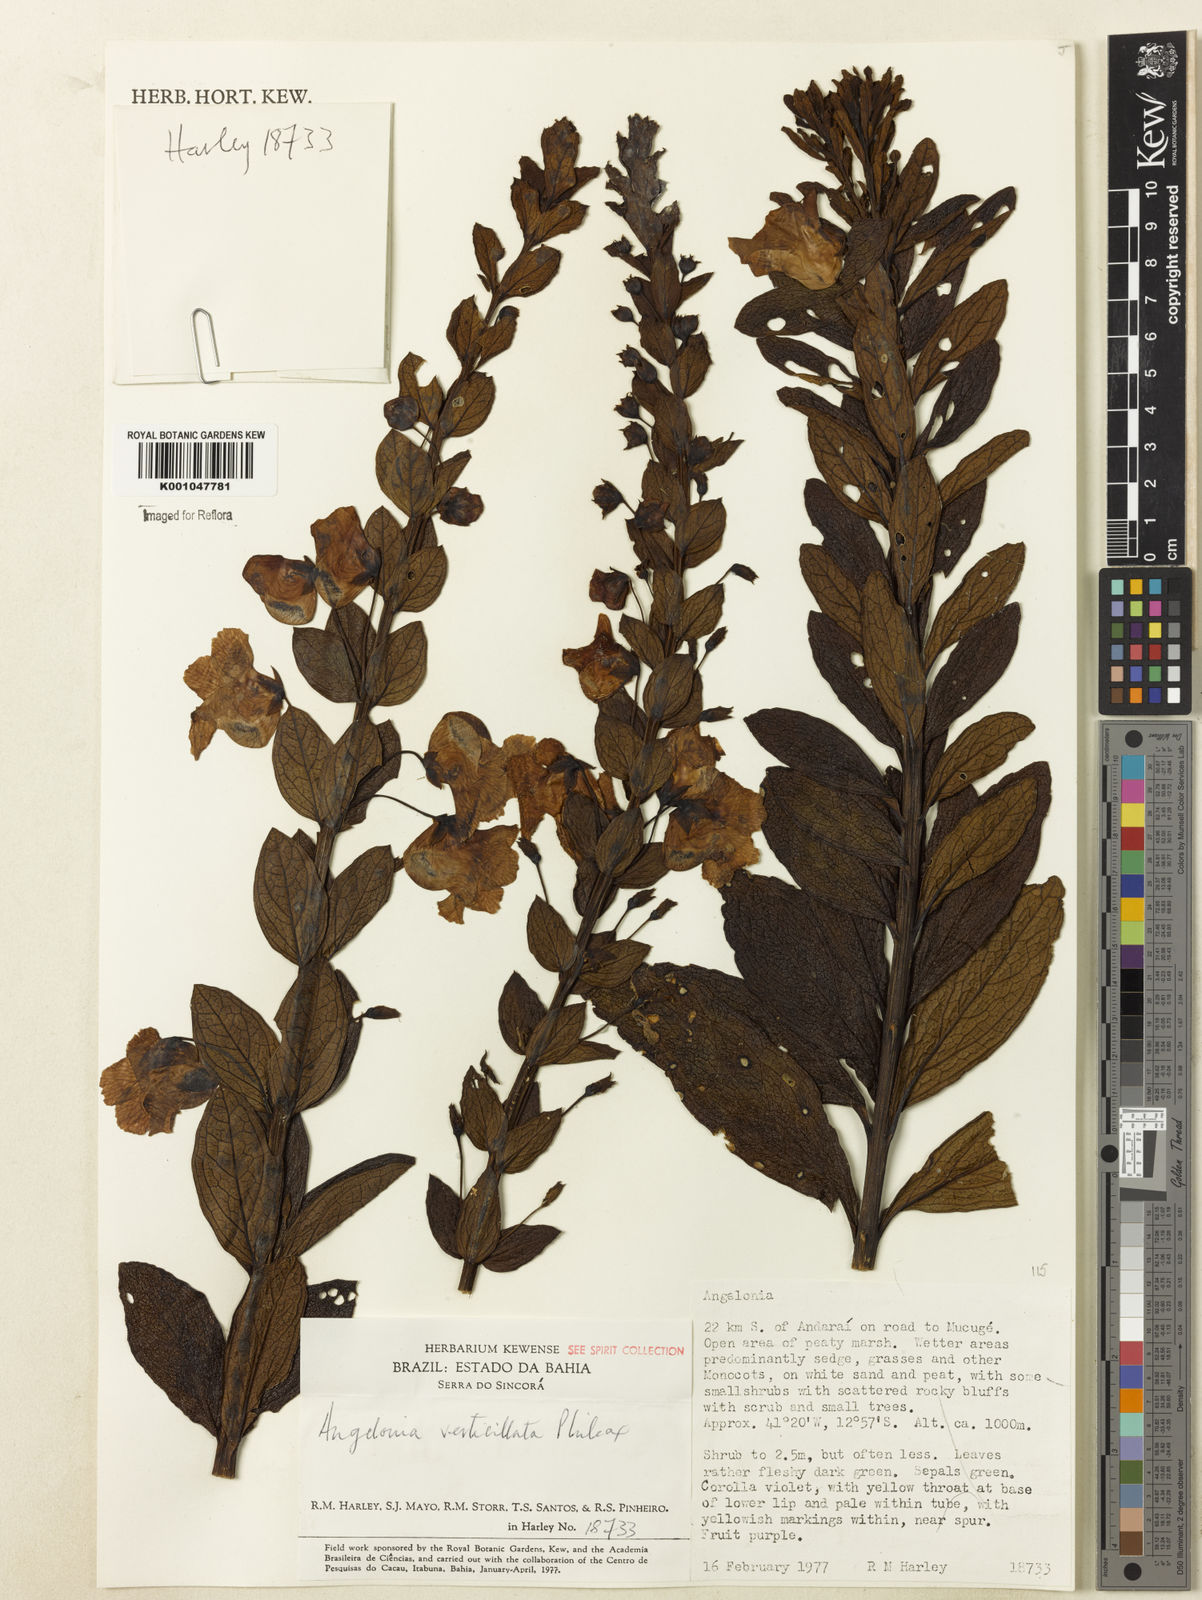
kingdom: Plantae
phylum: Tracheophyta
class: Magnoliopsida
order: Lamiales
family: Plantaginaceae
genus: Angelonia
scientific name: Angelonia verticillata
